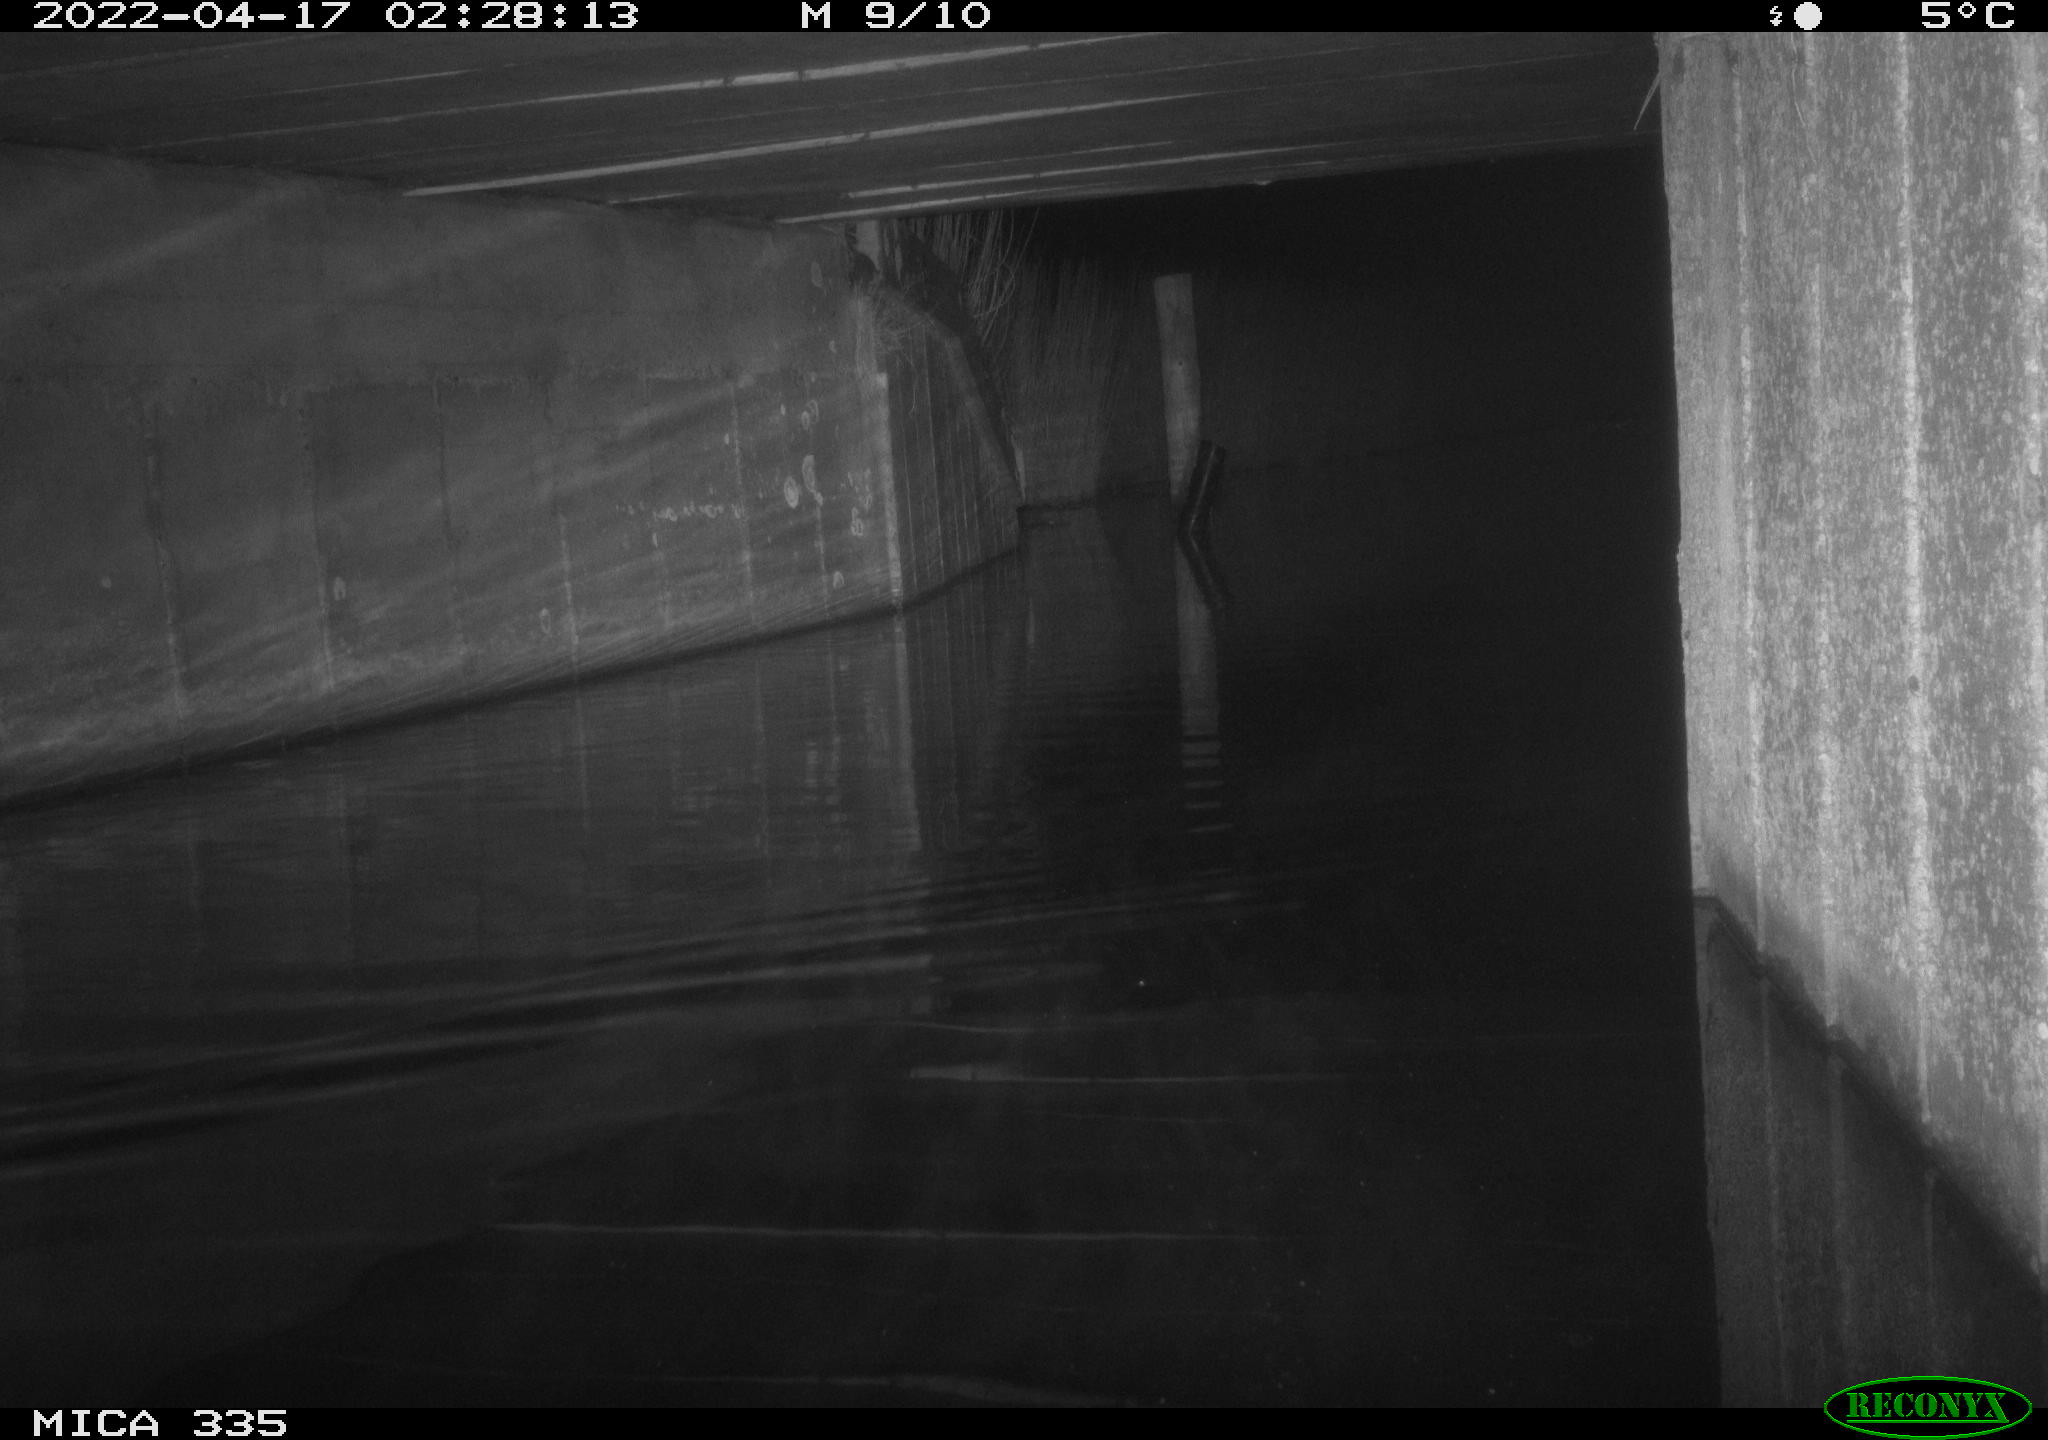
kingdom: Animalia
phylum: Chordata
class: Aves
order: Anseriformes
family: Anatidae
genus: Anas
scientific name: Anas platyrhynchos
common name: Mallard
